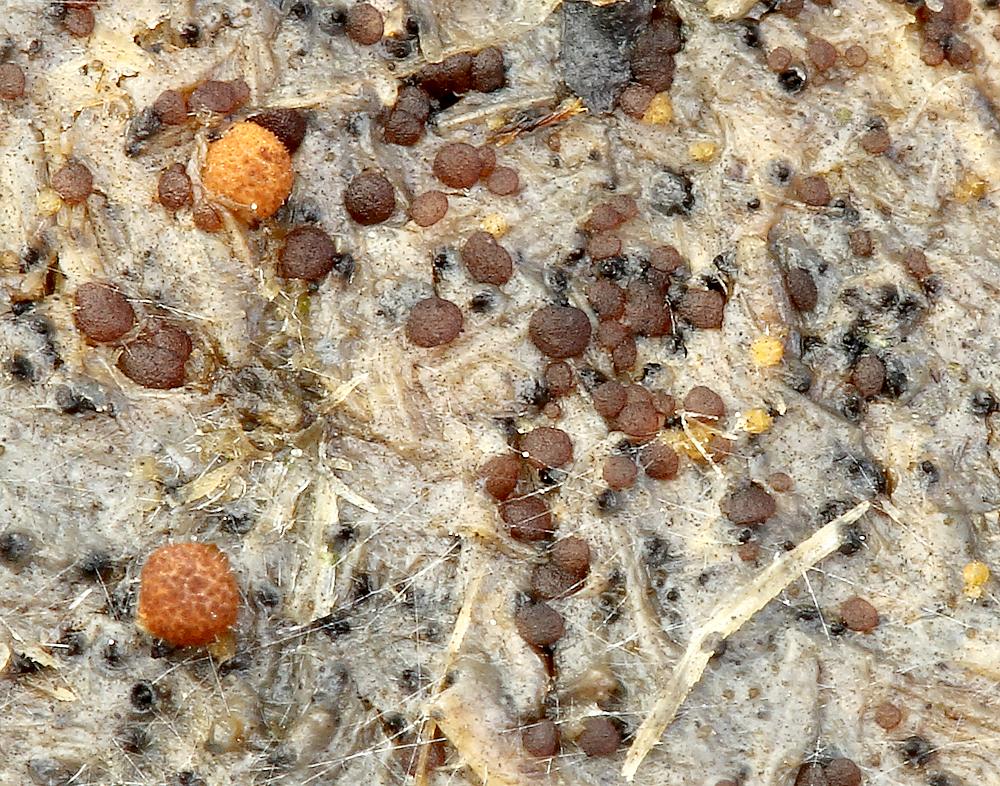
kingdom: Fungi
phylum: Ascomycota
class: Pezizomycetes
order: Pezizales
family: Ascobolaceae
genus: Saccobolus
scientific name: Saccobolus obscurus
